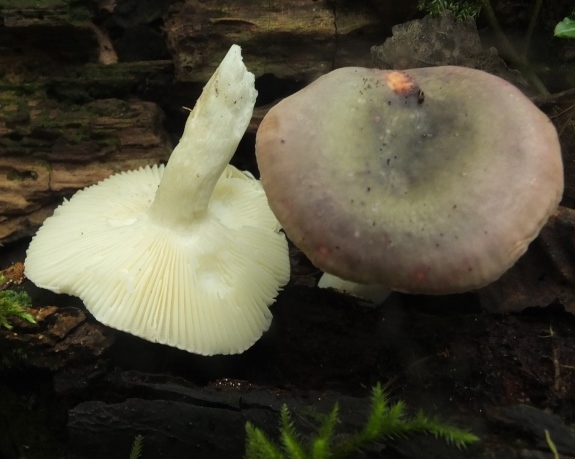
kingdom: Fungi
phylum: Basidiomycota
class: Agaricomycetes
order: Russulales
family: Russulaceae
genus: Russula
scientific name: Russula pelargonia
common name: pelargonie-skørhat
